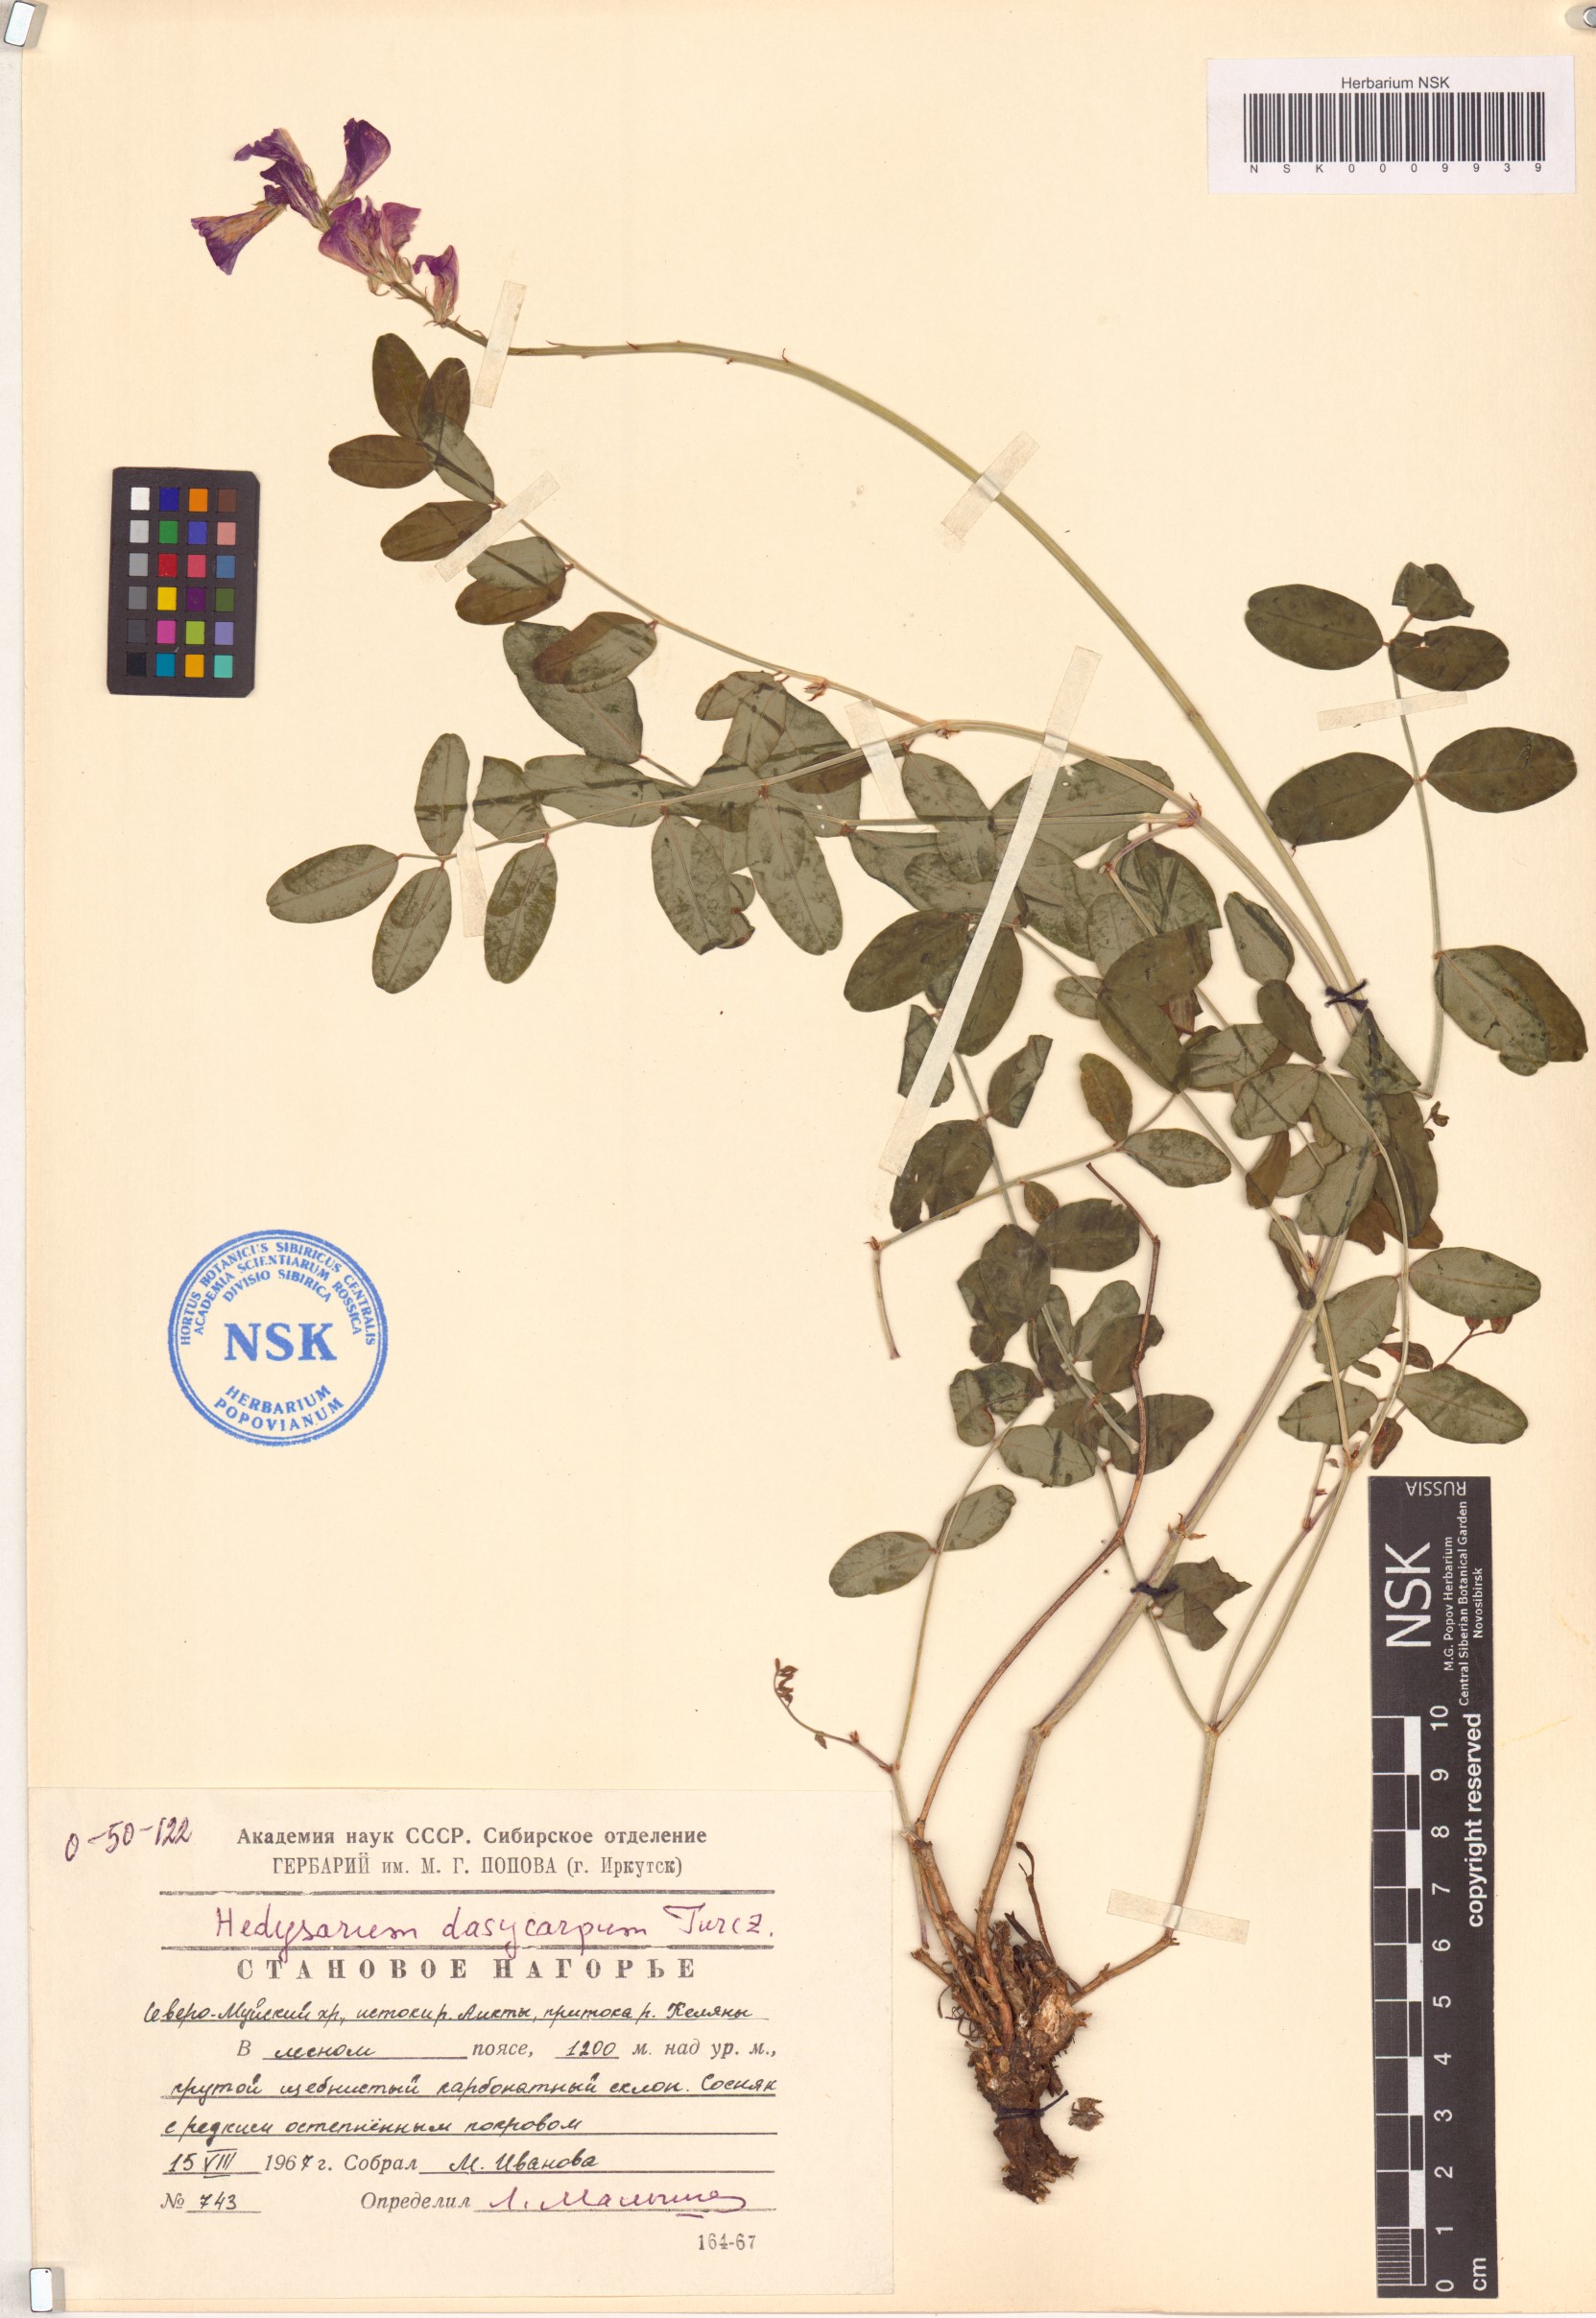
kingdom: Plantae
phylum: Tracheophyta
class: Magnoliopsida
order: Fabales
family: Fabaceae
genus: Hedysarum
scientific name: Hedysarum dasycarpum
